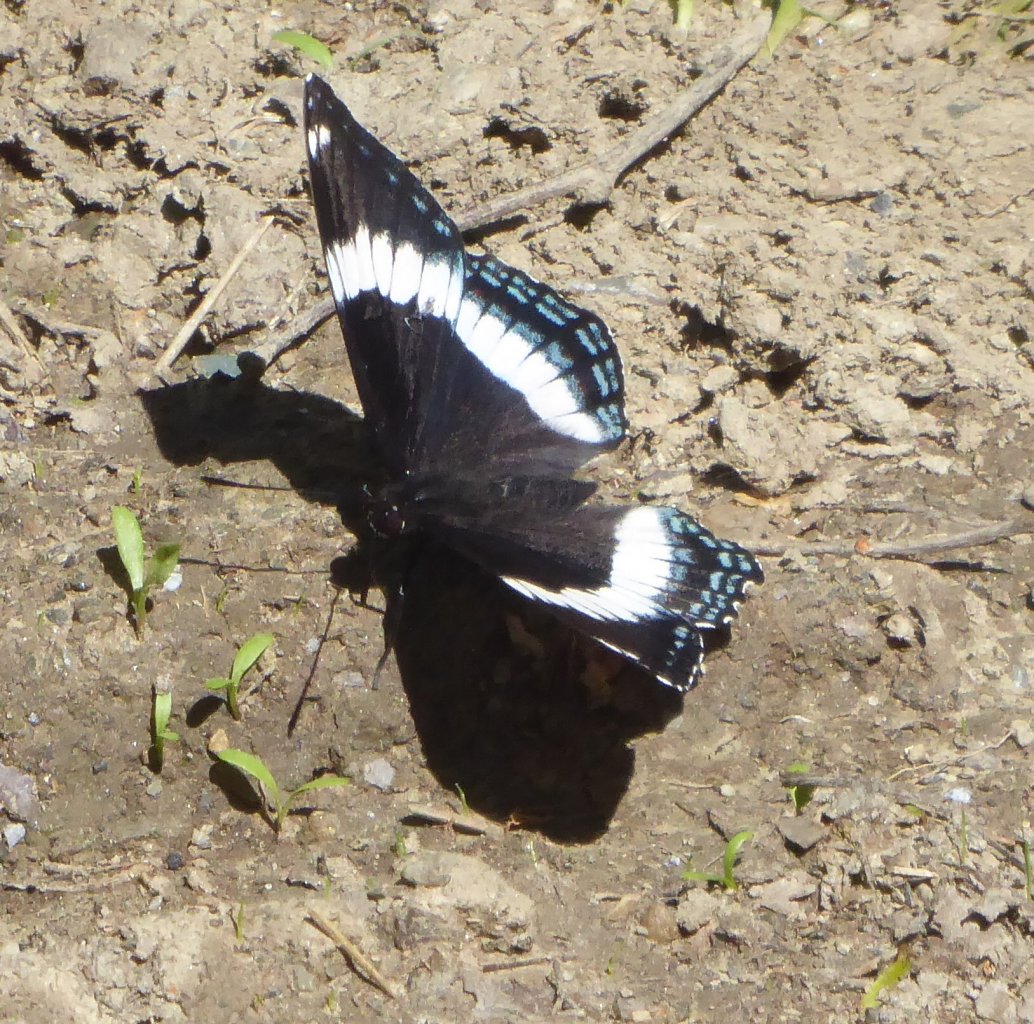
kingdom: Animalia
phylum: Arthropoda
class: Insecta
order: Lepidoptera
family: Nymphalidae
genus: Limenitis
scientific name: Limenitis arthemis
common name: Red-spotted Admiral
